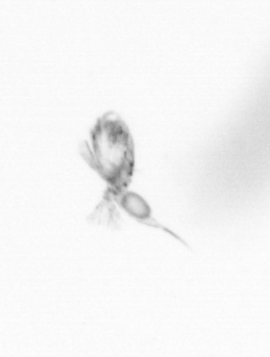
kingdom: Animalia
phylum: Arthropoda
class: Copepoda
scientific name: Copepoda
